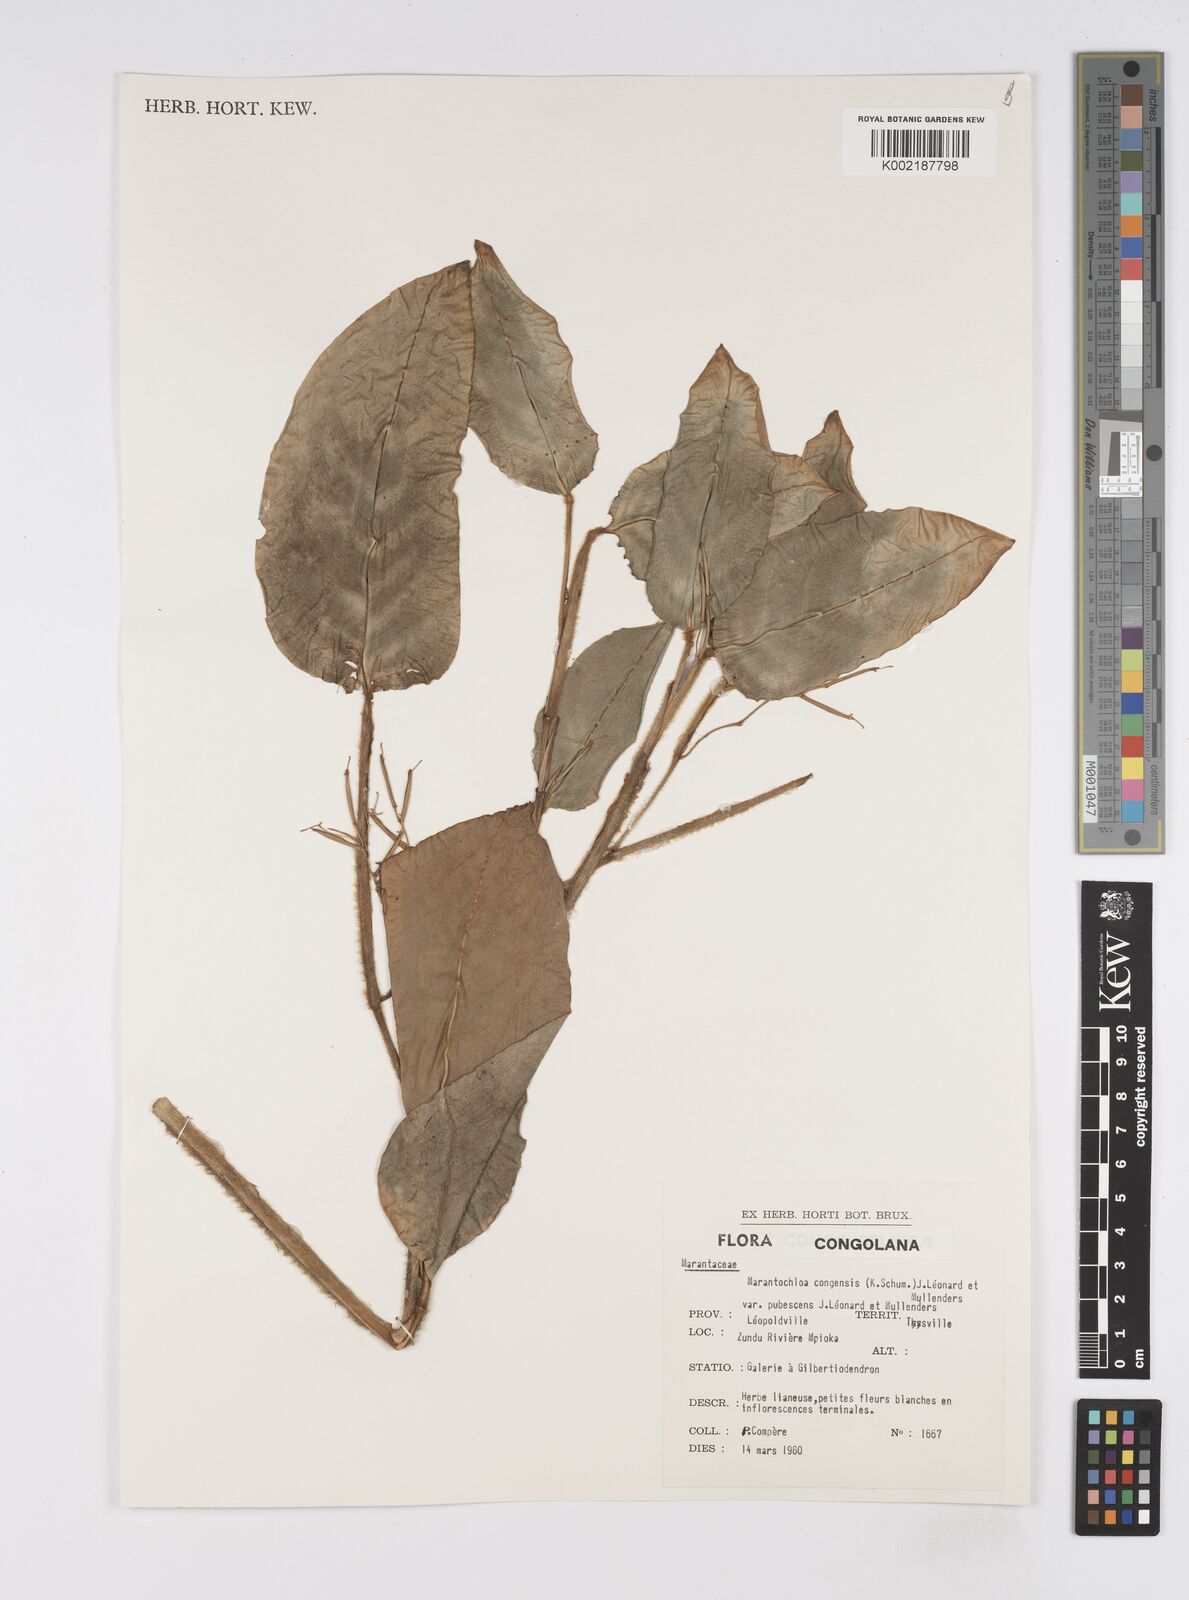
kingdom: Plantae
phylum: Tracheophyta
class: Liliopsida
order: Zingiberales
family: Marantaceae
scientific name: Marantaceae
